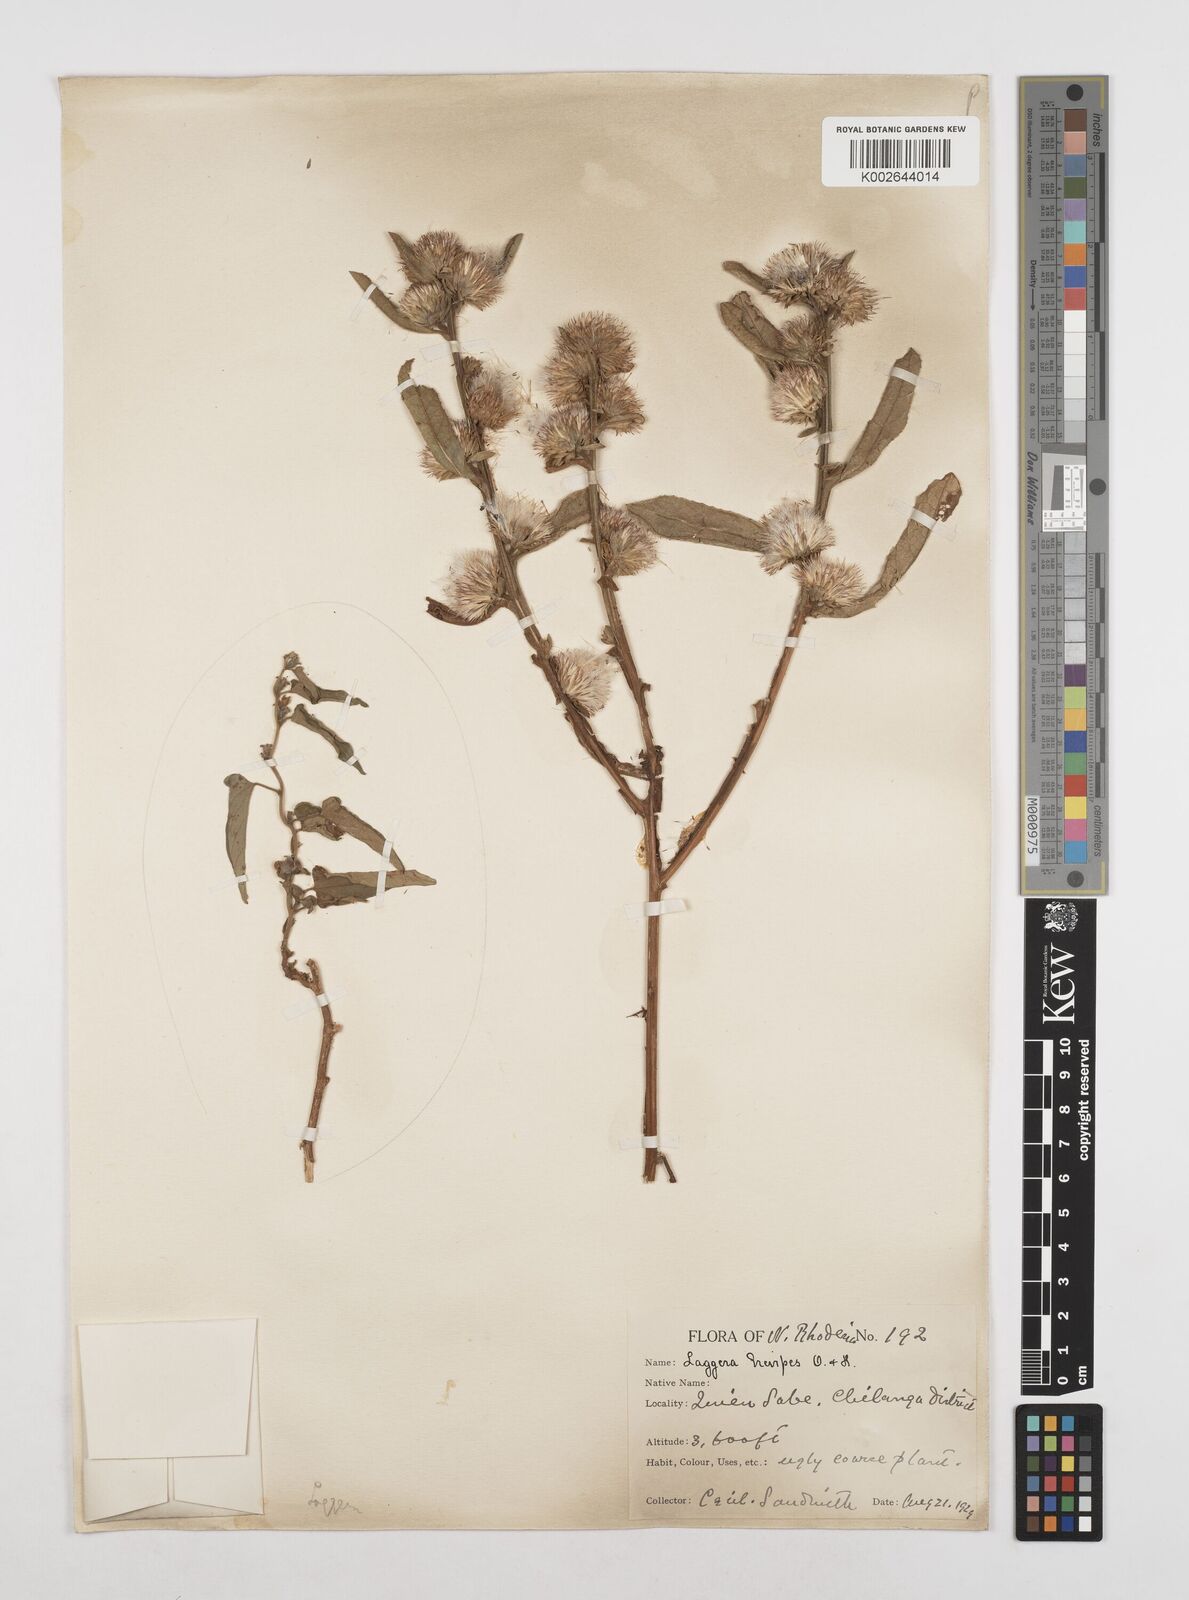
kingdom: Plantae
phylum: Tracheophyta
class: Magnoliopsida
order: Asterales
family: Asteraceae
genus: Laggera
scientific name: Laggera brevipes
